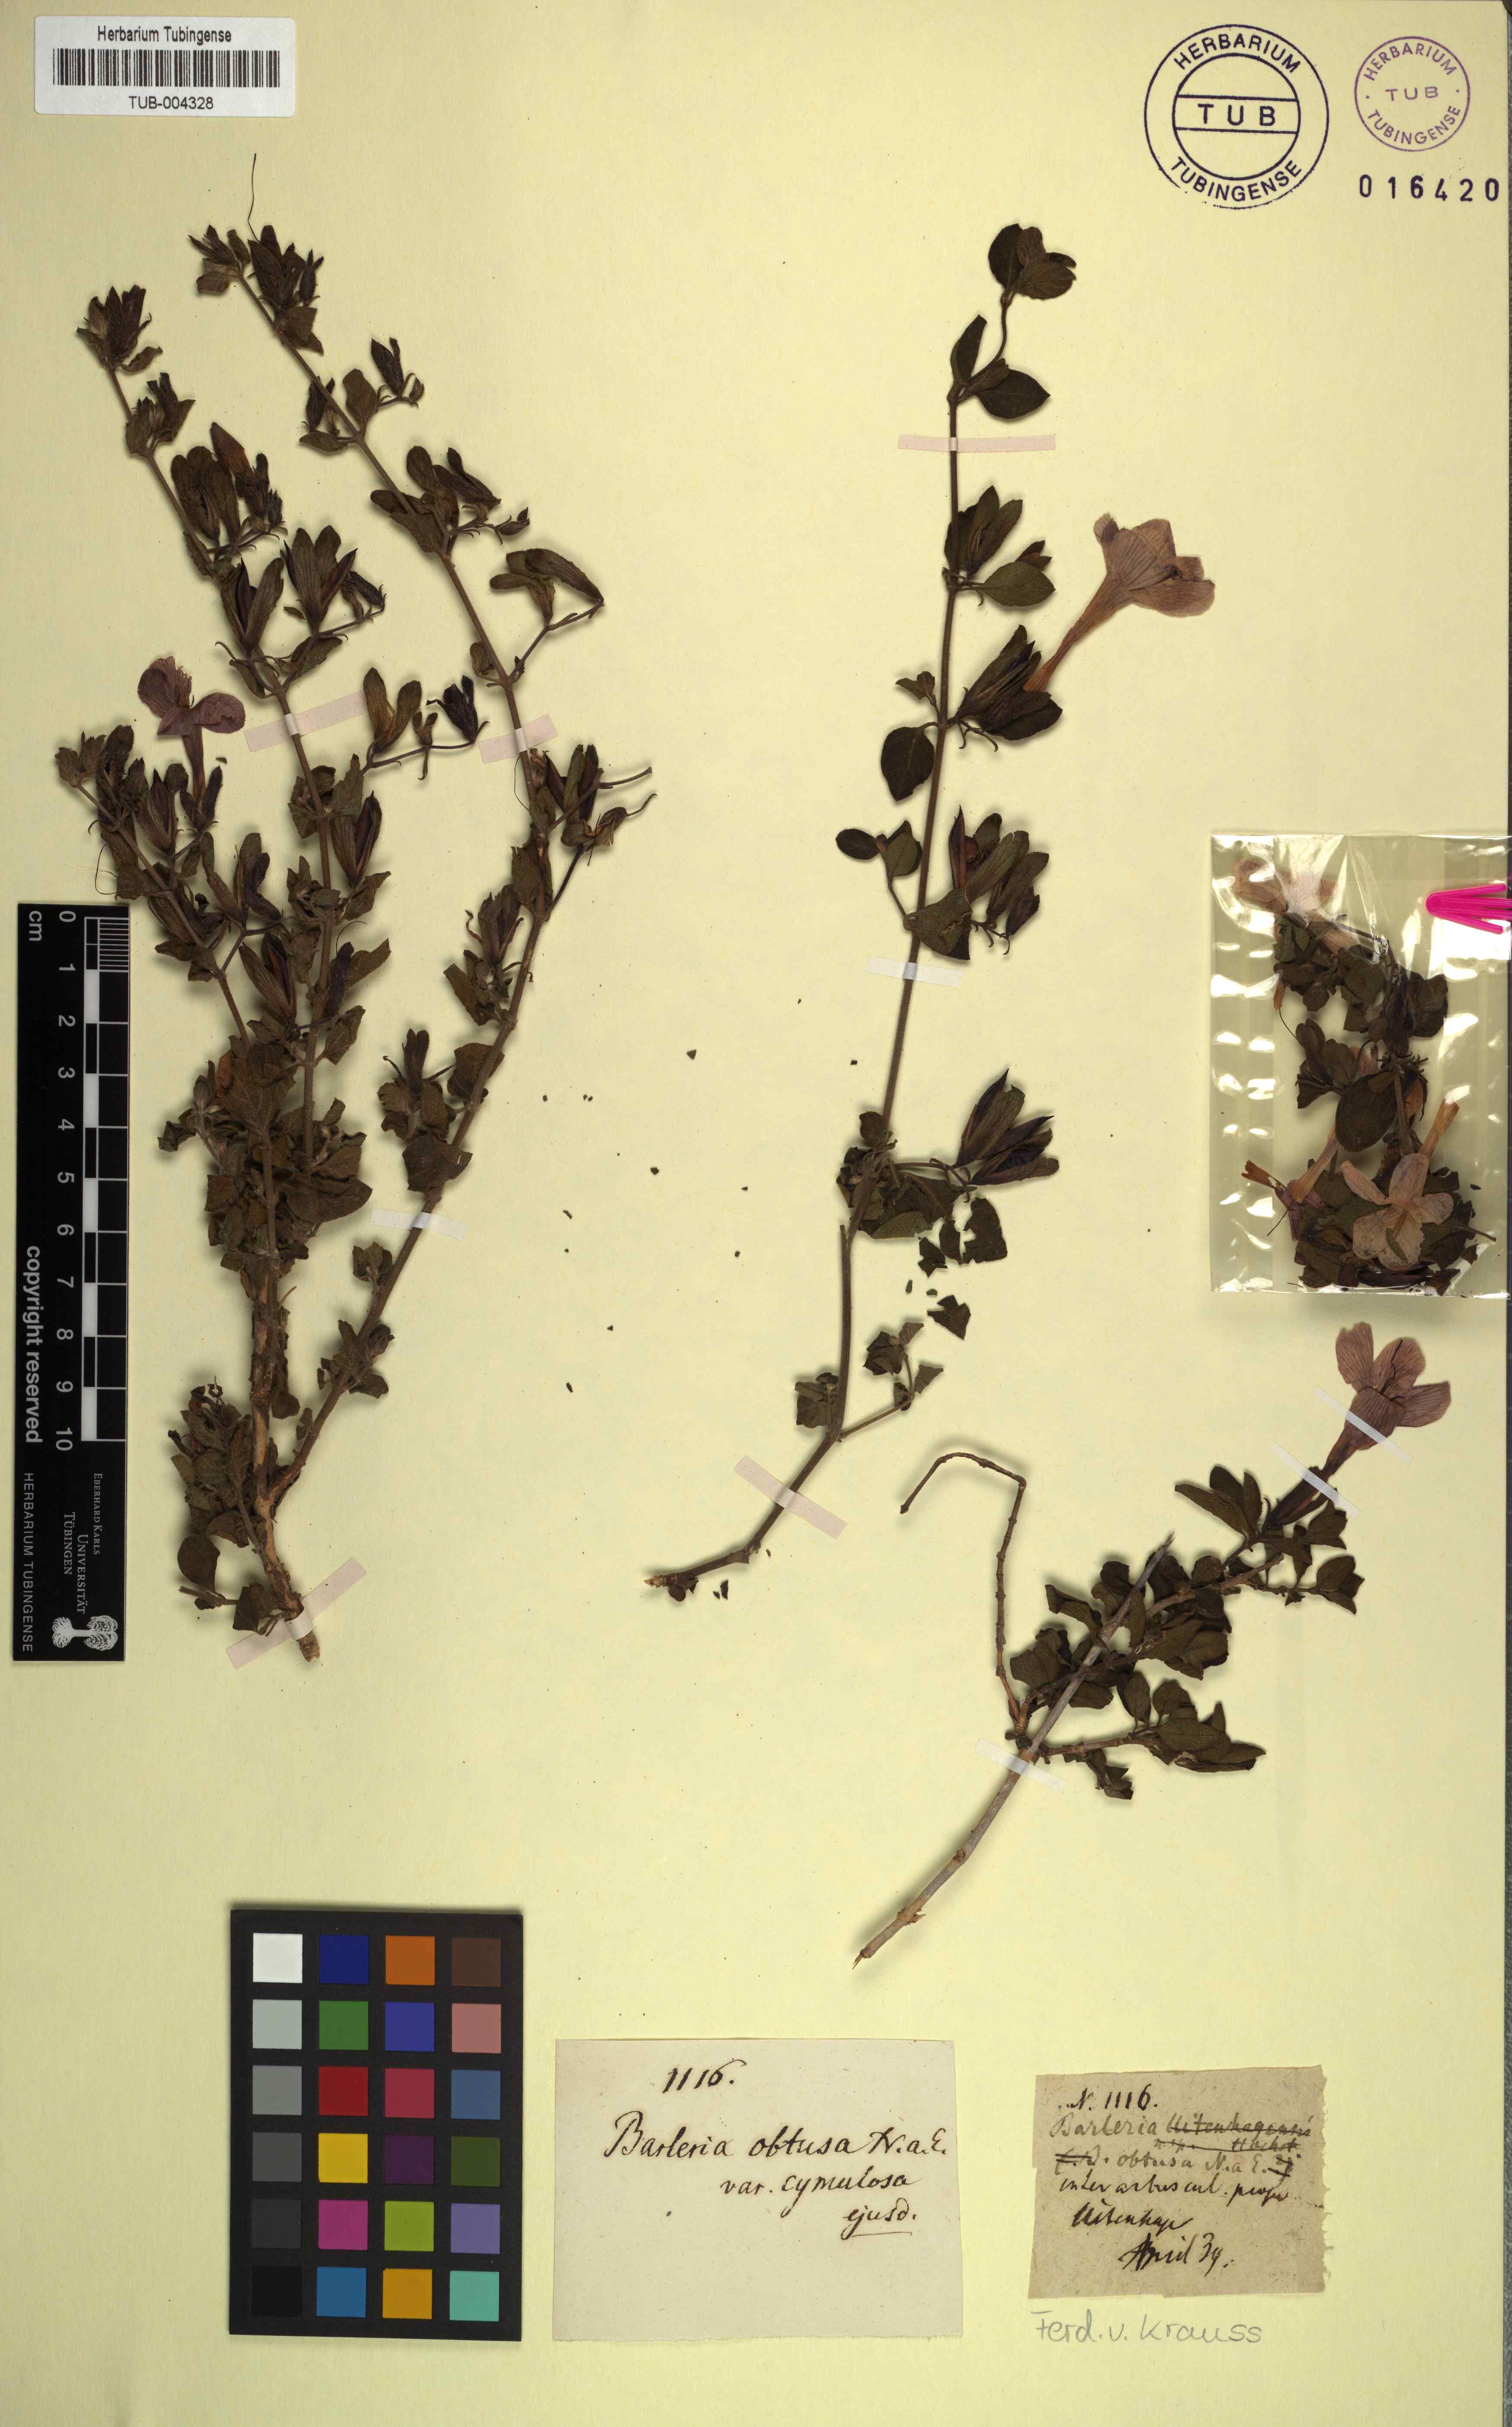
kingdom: Plantae
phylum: Tracheophyta
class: Magnoliopsida
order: Lamiales
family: Acanthaceae
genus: Barleria
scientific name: Barleria obtusa
